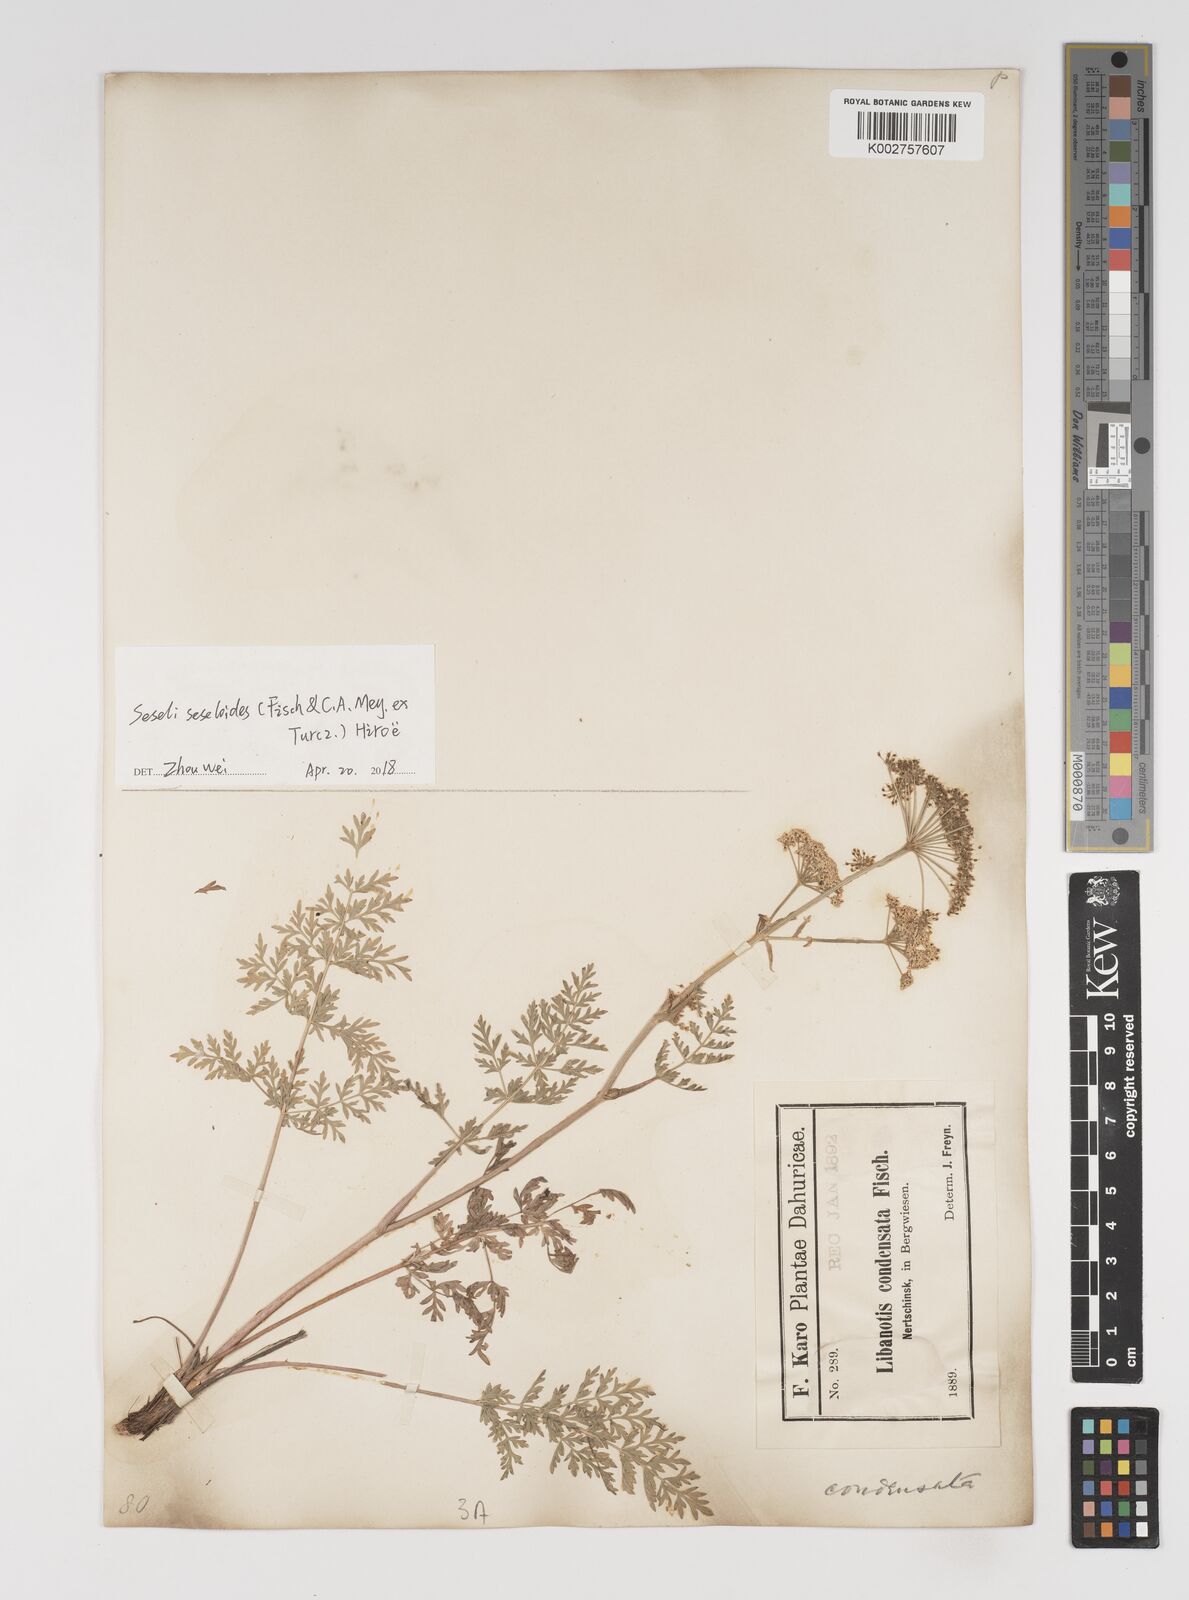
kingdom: Plantae
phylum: Tracheophyta
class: Magnoliopsida
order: Apiales
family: Apiaceae
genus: Seseli
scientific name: Seseli seseloides
